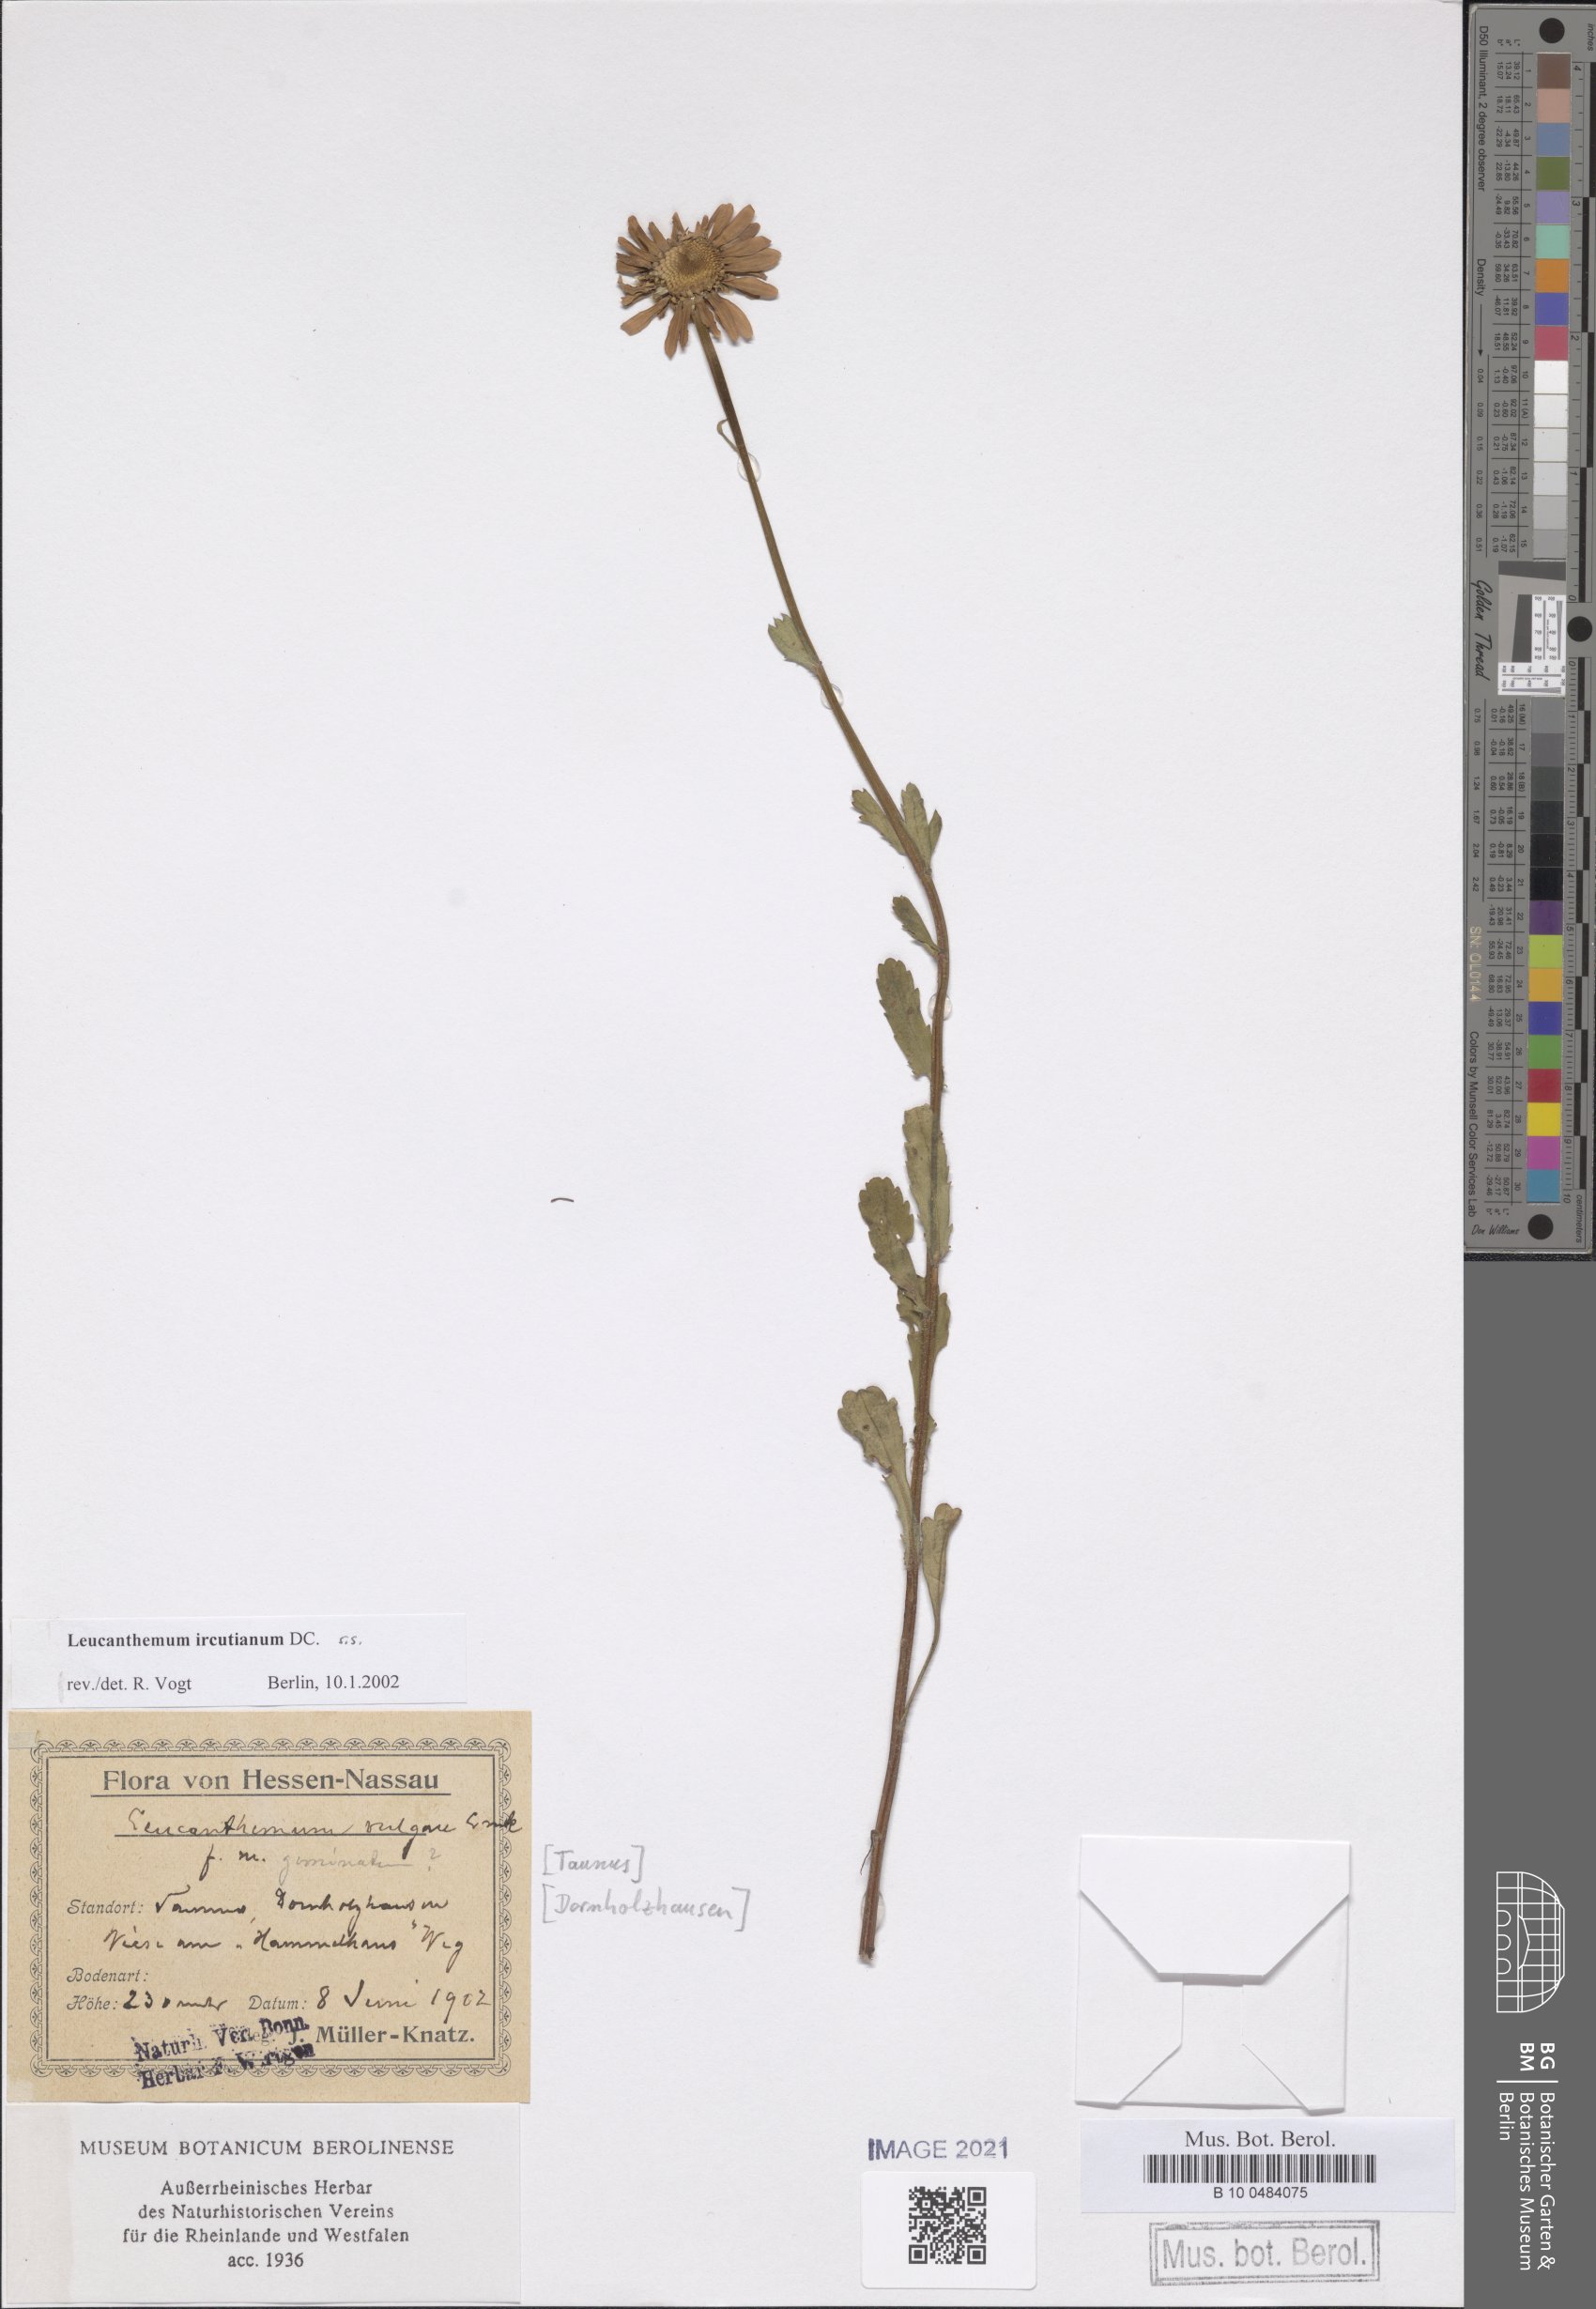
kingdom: Plantae
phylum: Tracheophyta
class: Magnoliopsida
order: Asterales
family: Asteraceae
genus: Leucanthemum
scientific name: Leucanthemum ircutianum
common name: Daisy
